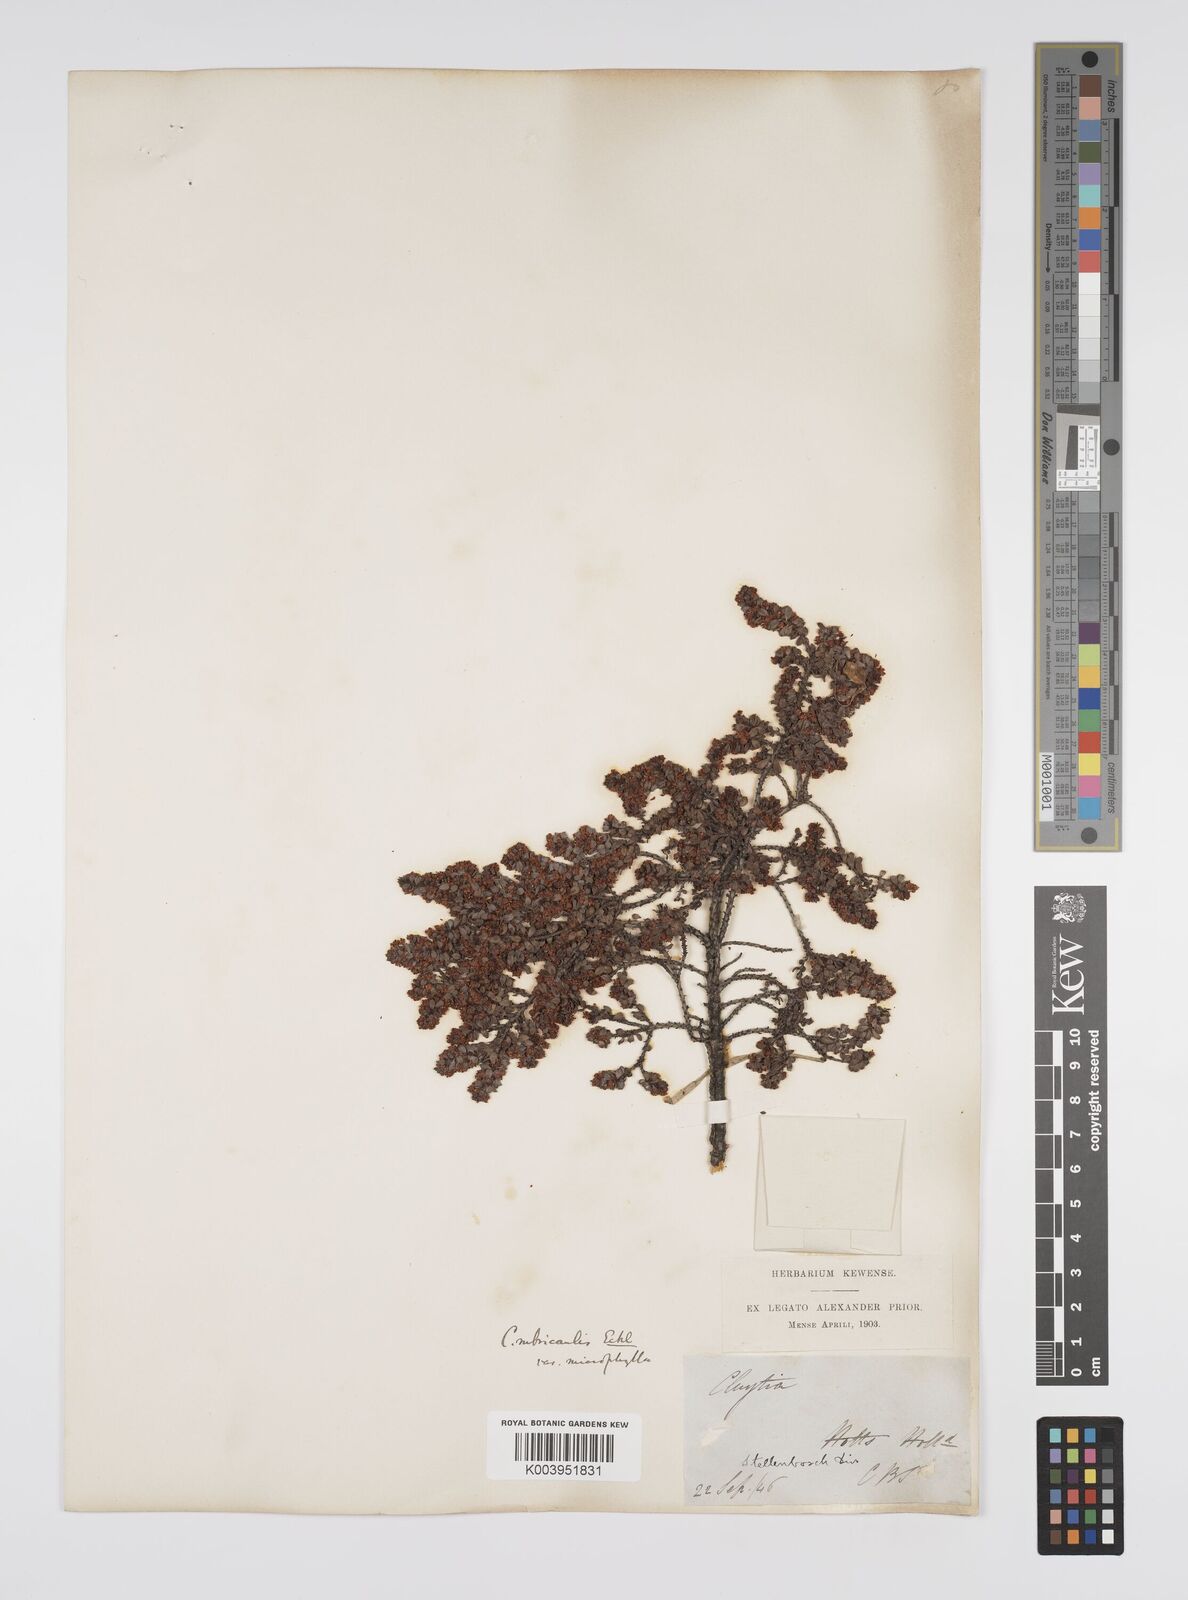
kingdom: Plantae
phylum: Tracheophyta
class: Magnoliopsida
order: Malpighiales
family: Peraceae
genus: Clutia
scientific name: Clutia rubricaulis
